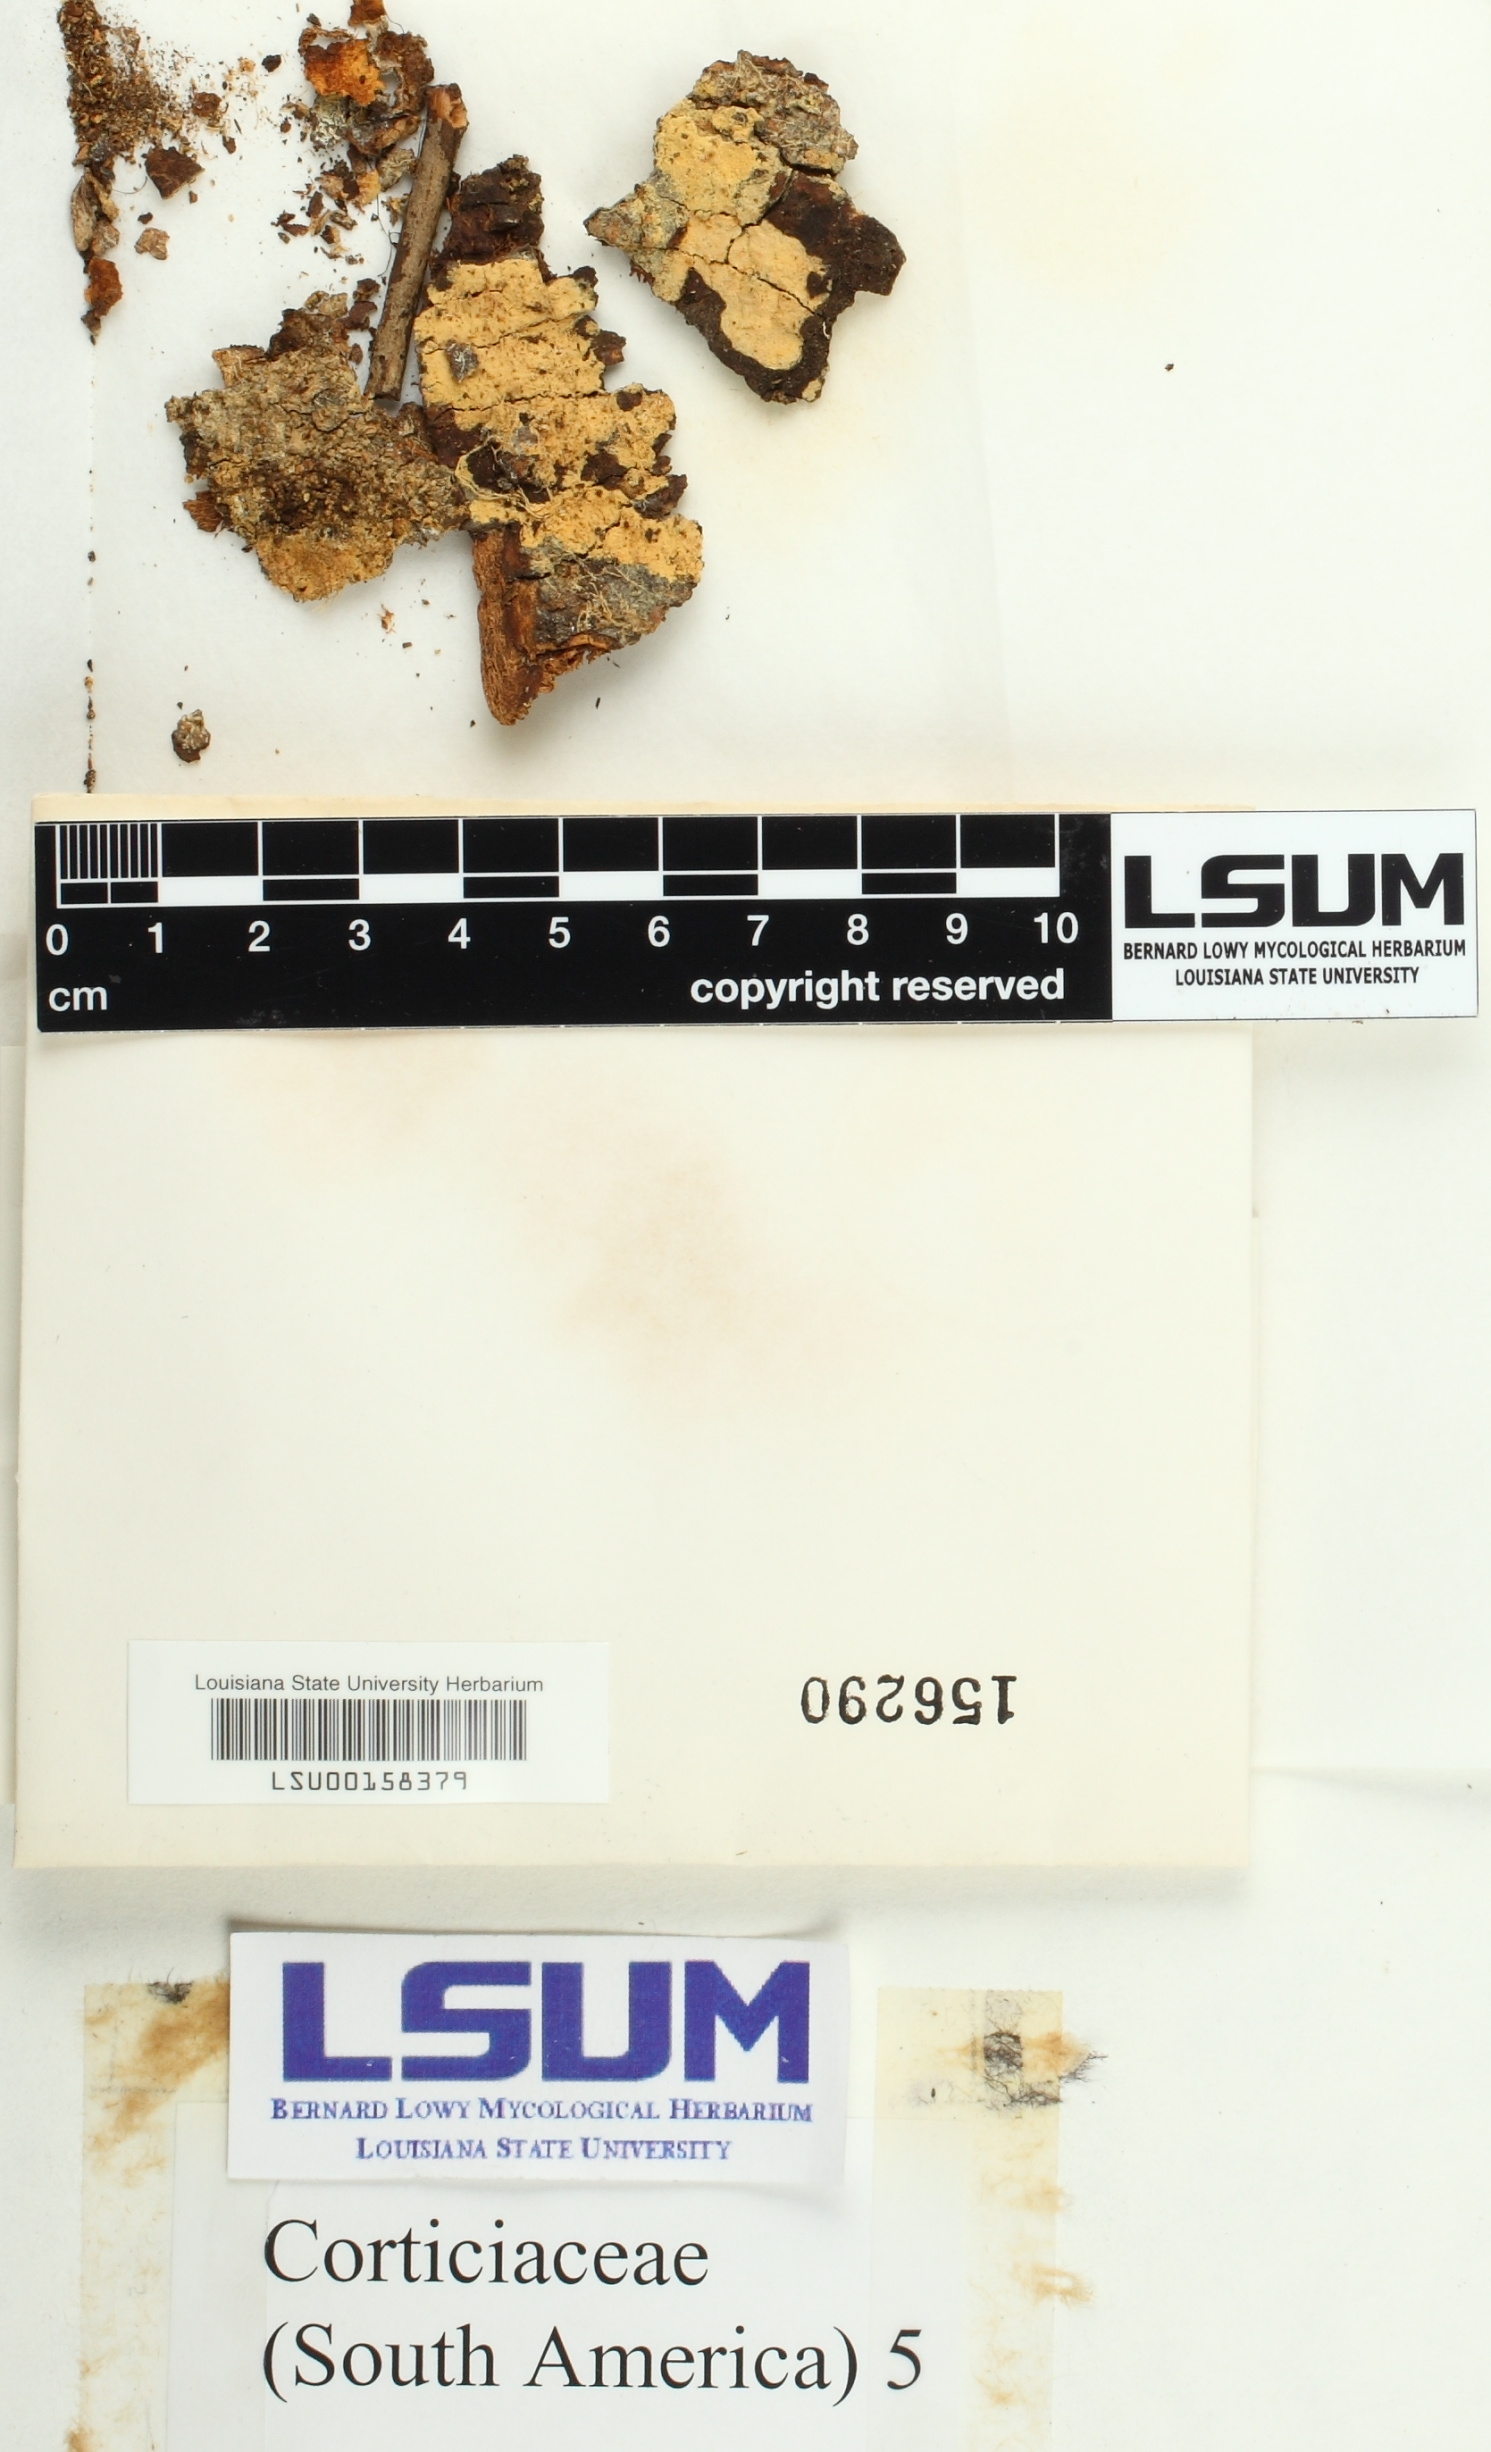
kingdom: Fungi
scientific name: Fungi
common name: Fungi
